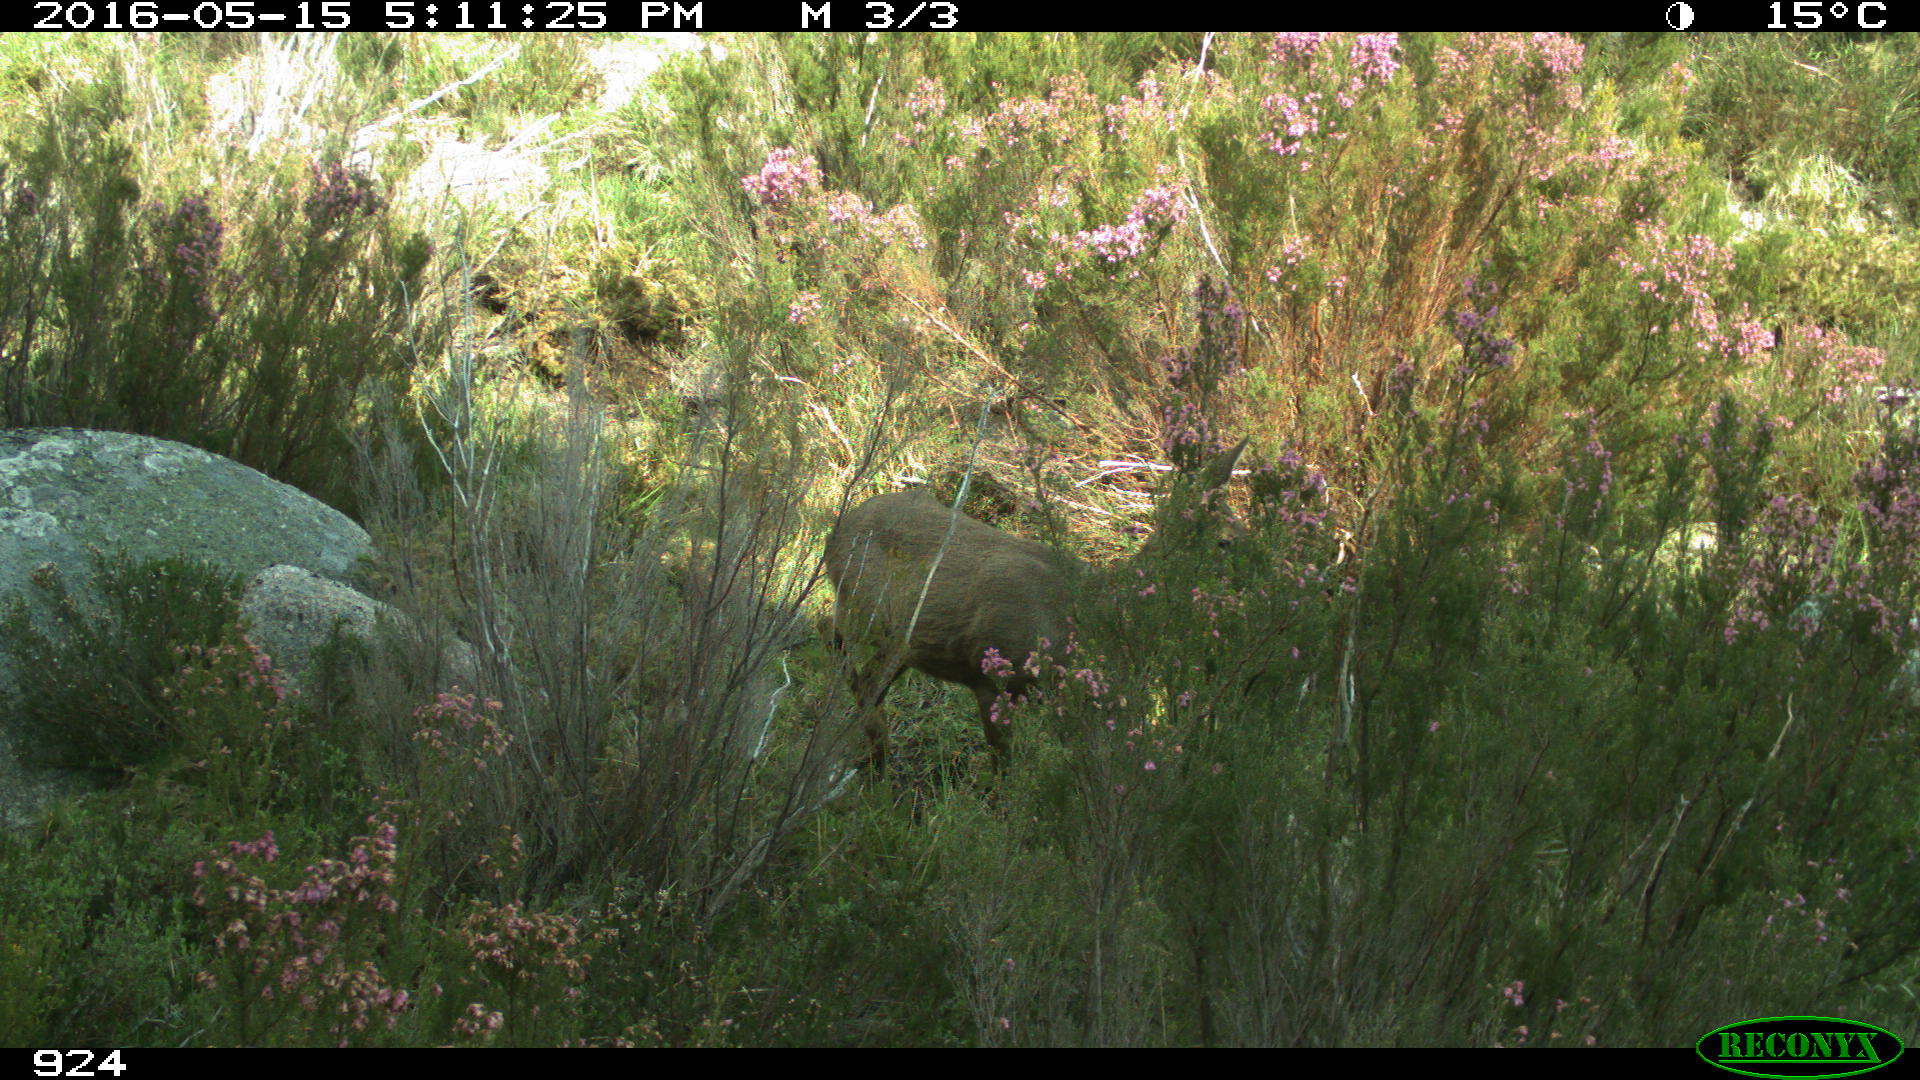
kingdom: Animalia
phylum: Chordata
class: Mammalia
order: Artiodactyla
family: Cervidae
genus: Capreolus
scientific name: Capreolus capreolus
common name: Western roe deer
